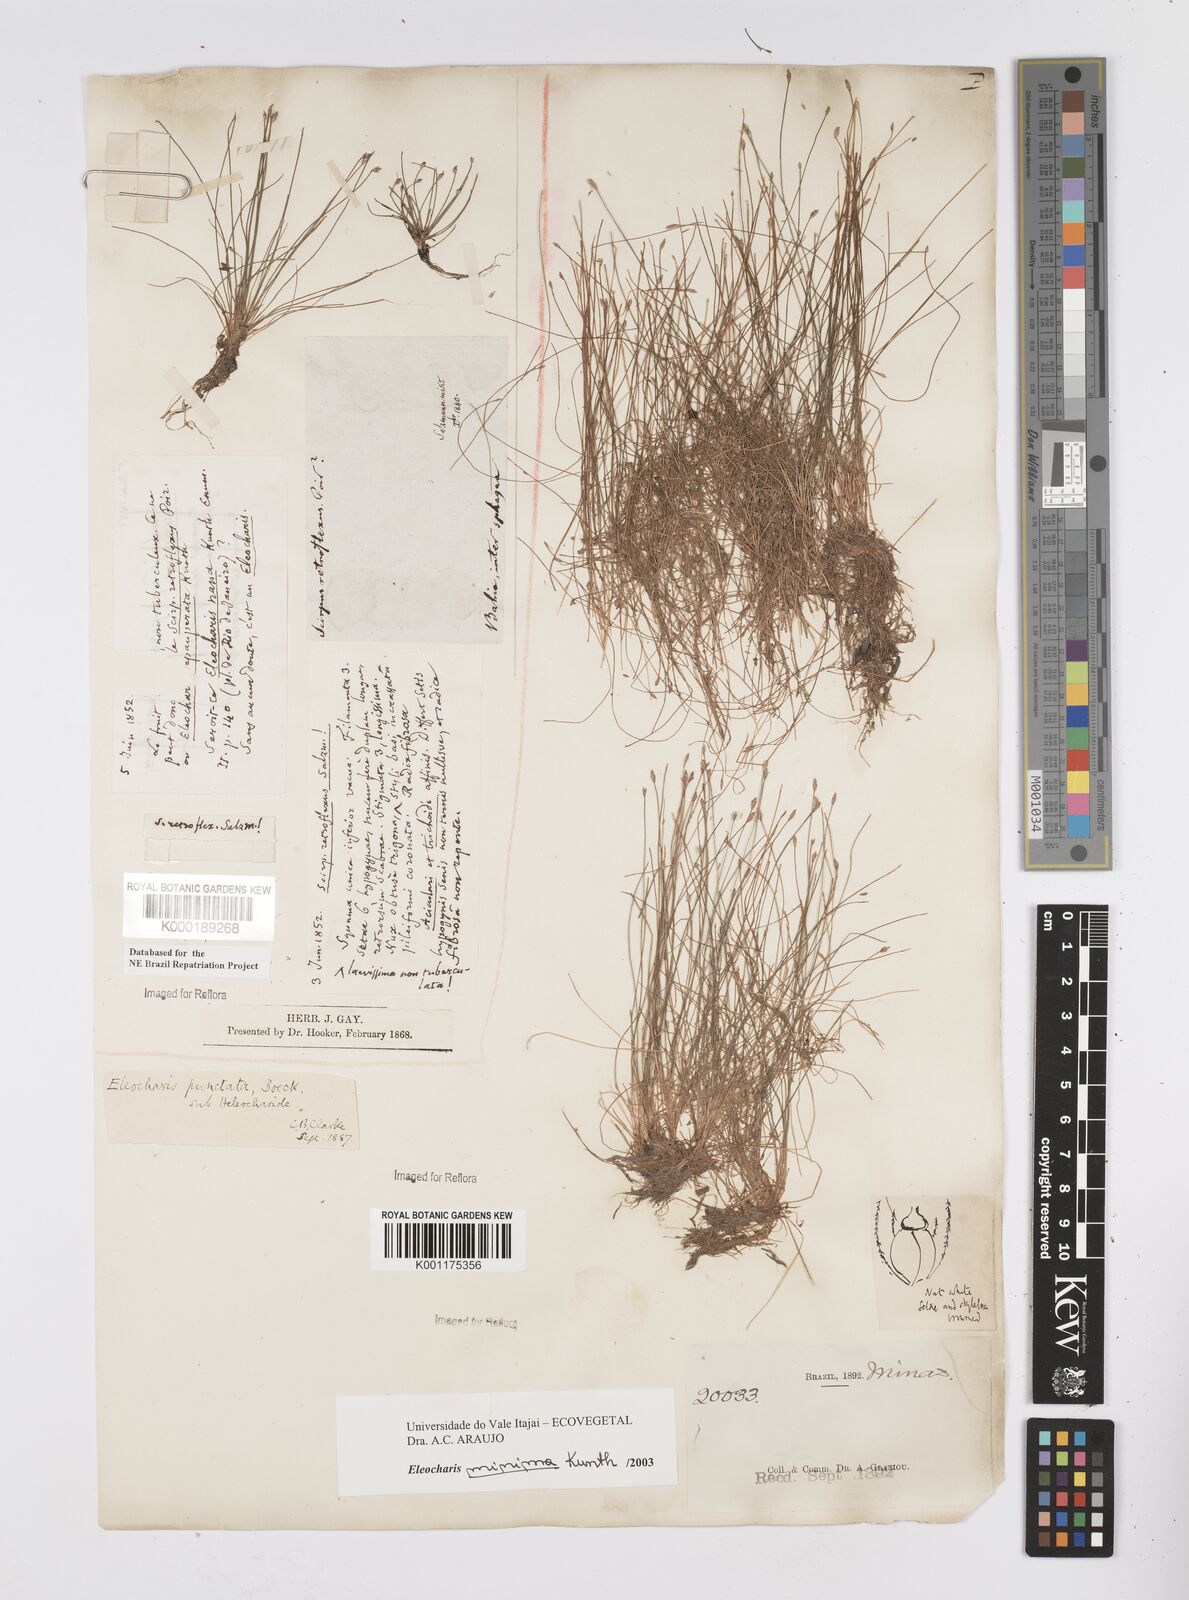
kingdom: Plantae
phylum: Tracheophyta
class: Liliopsida
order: Poales
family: Cyperaceae
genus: Eleocharis
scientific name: Eleocharis minima
